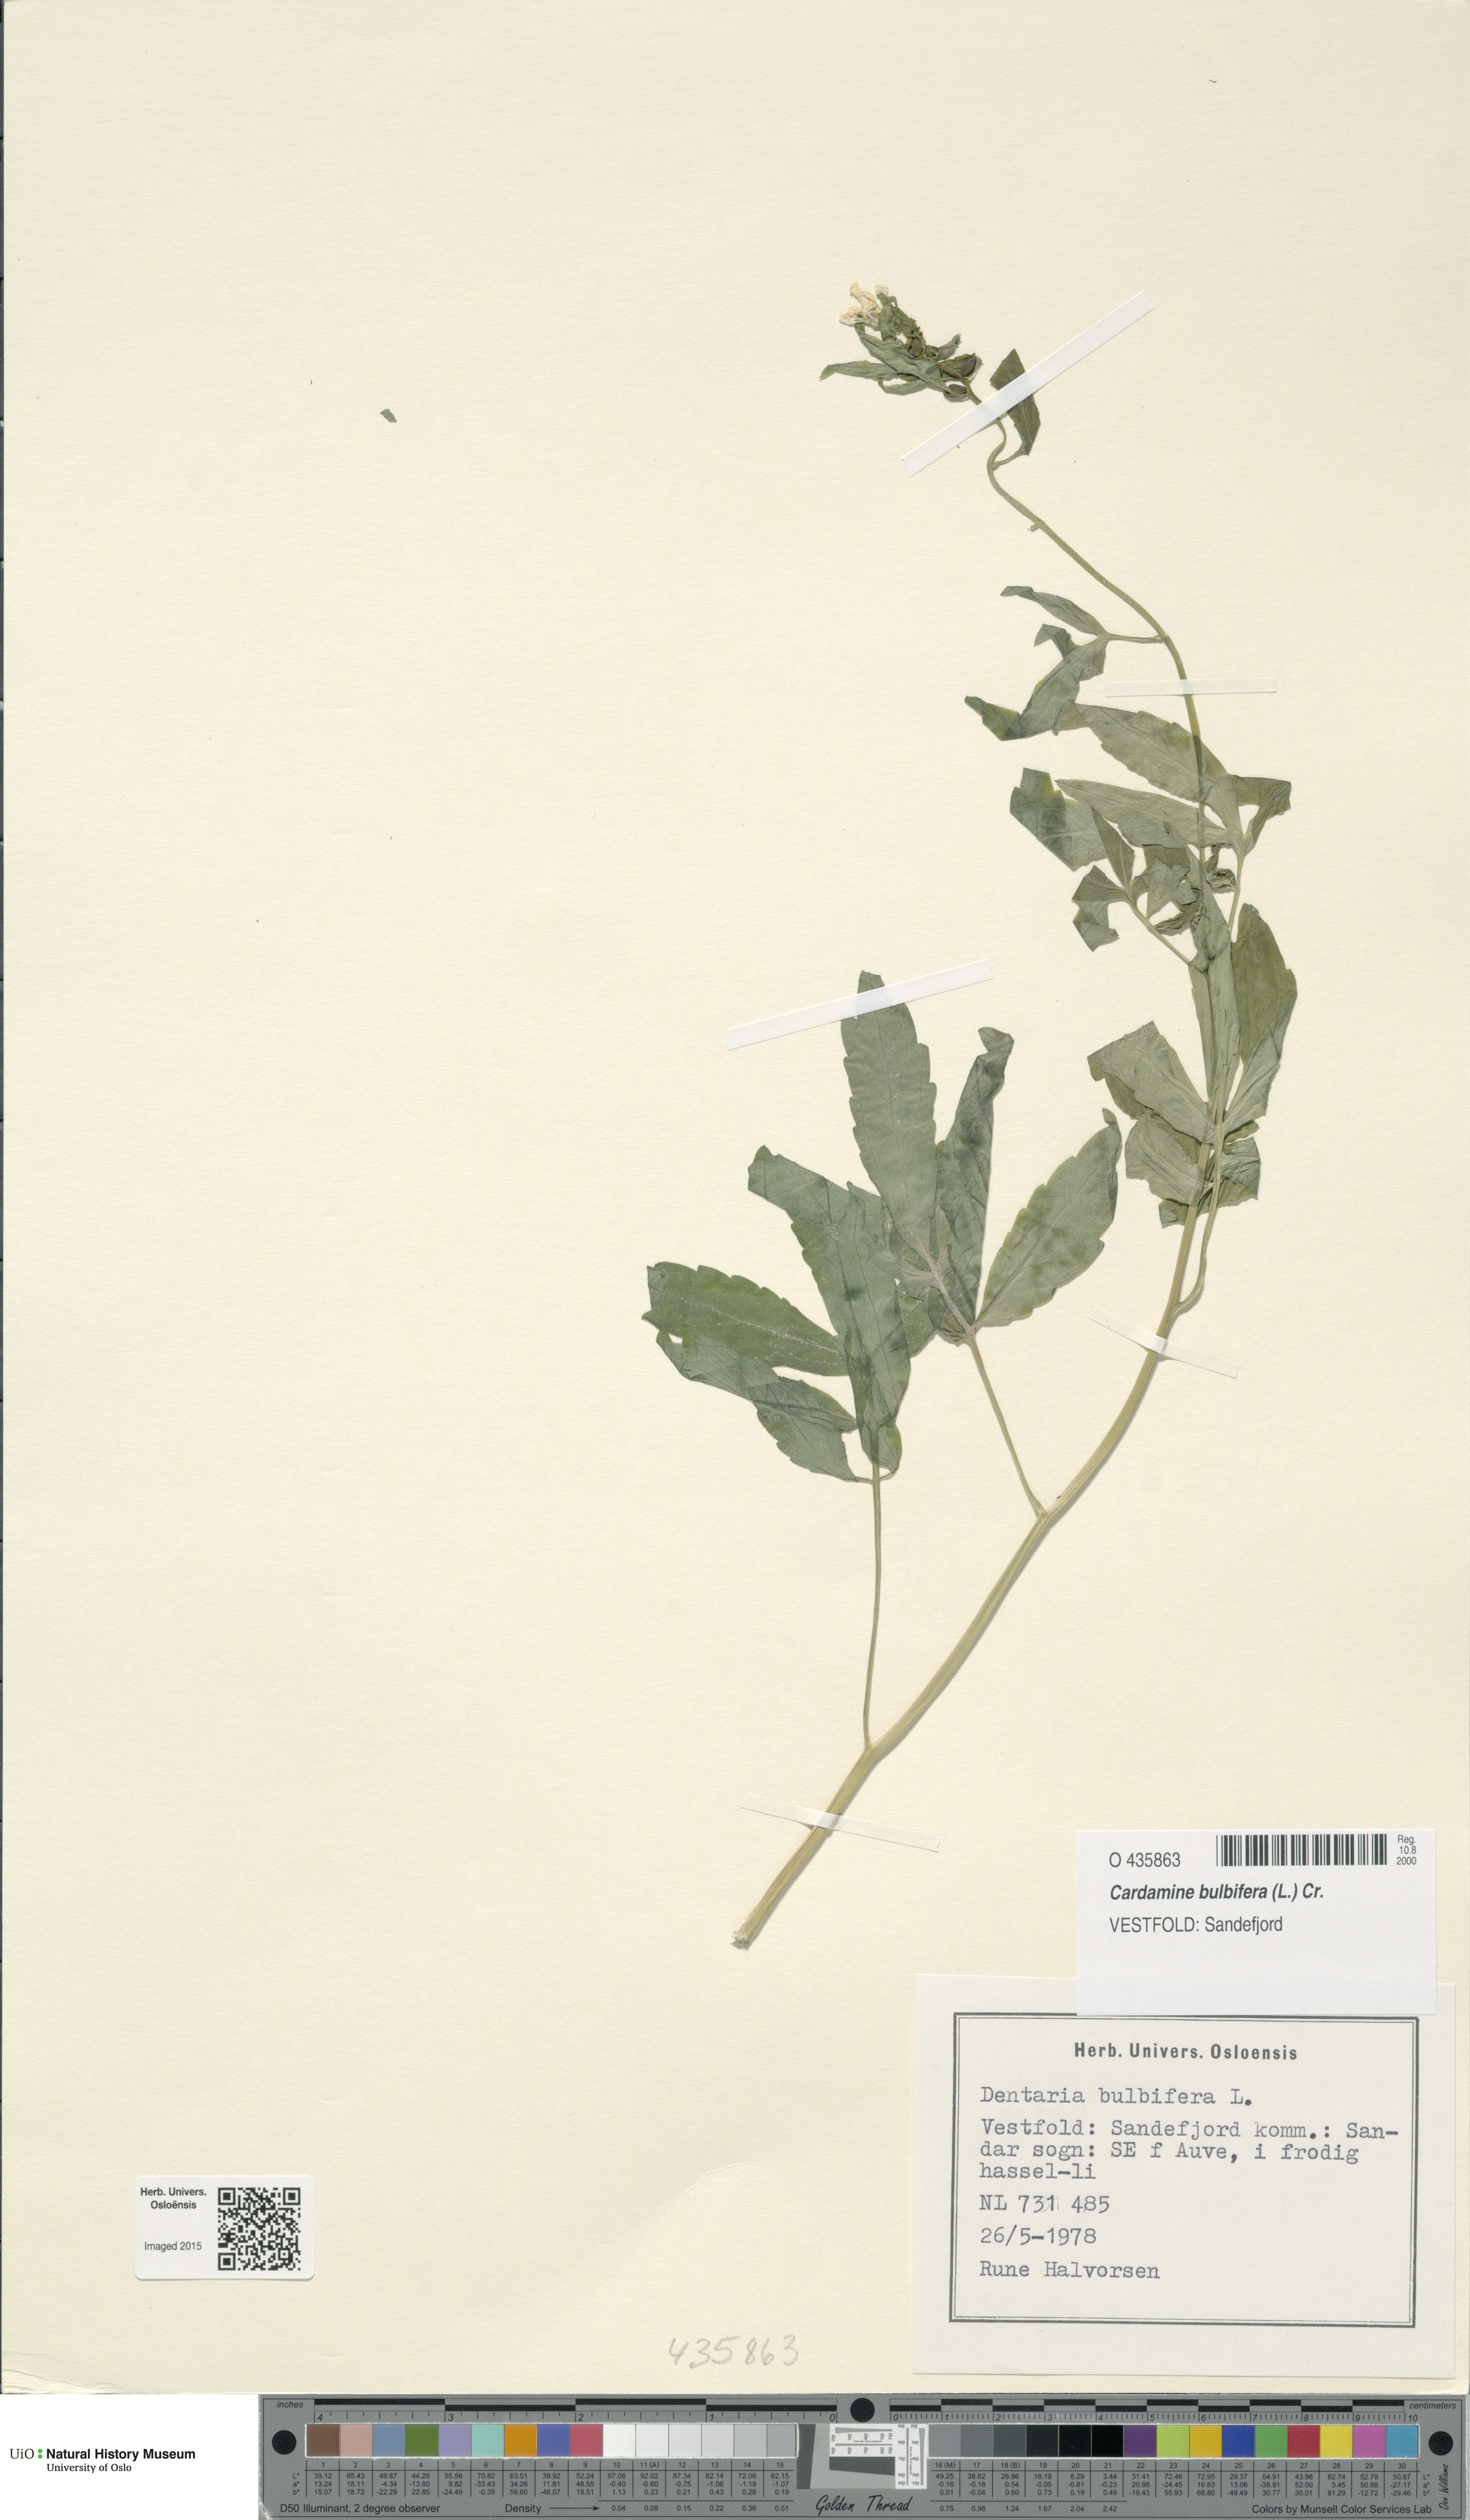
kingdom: Plantae
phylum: Tracheophyta
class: Magnoliopsida
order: Brassicales
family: Brassicaceae
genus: Cardamine
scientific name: Cardamine bulbifera
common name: Coralroot bittercress
